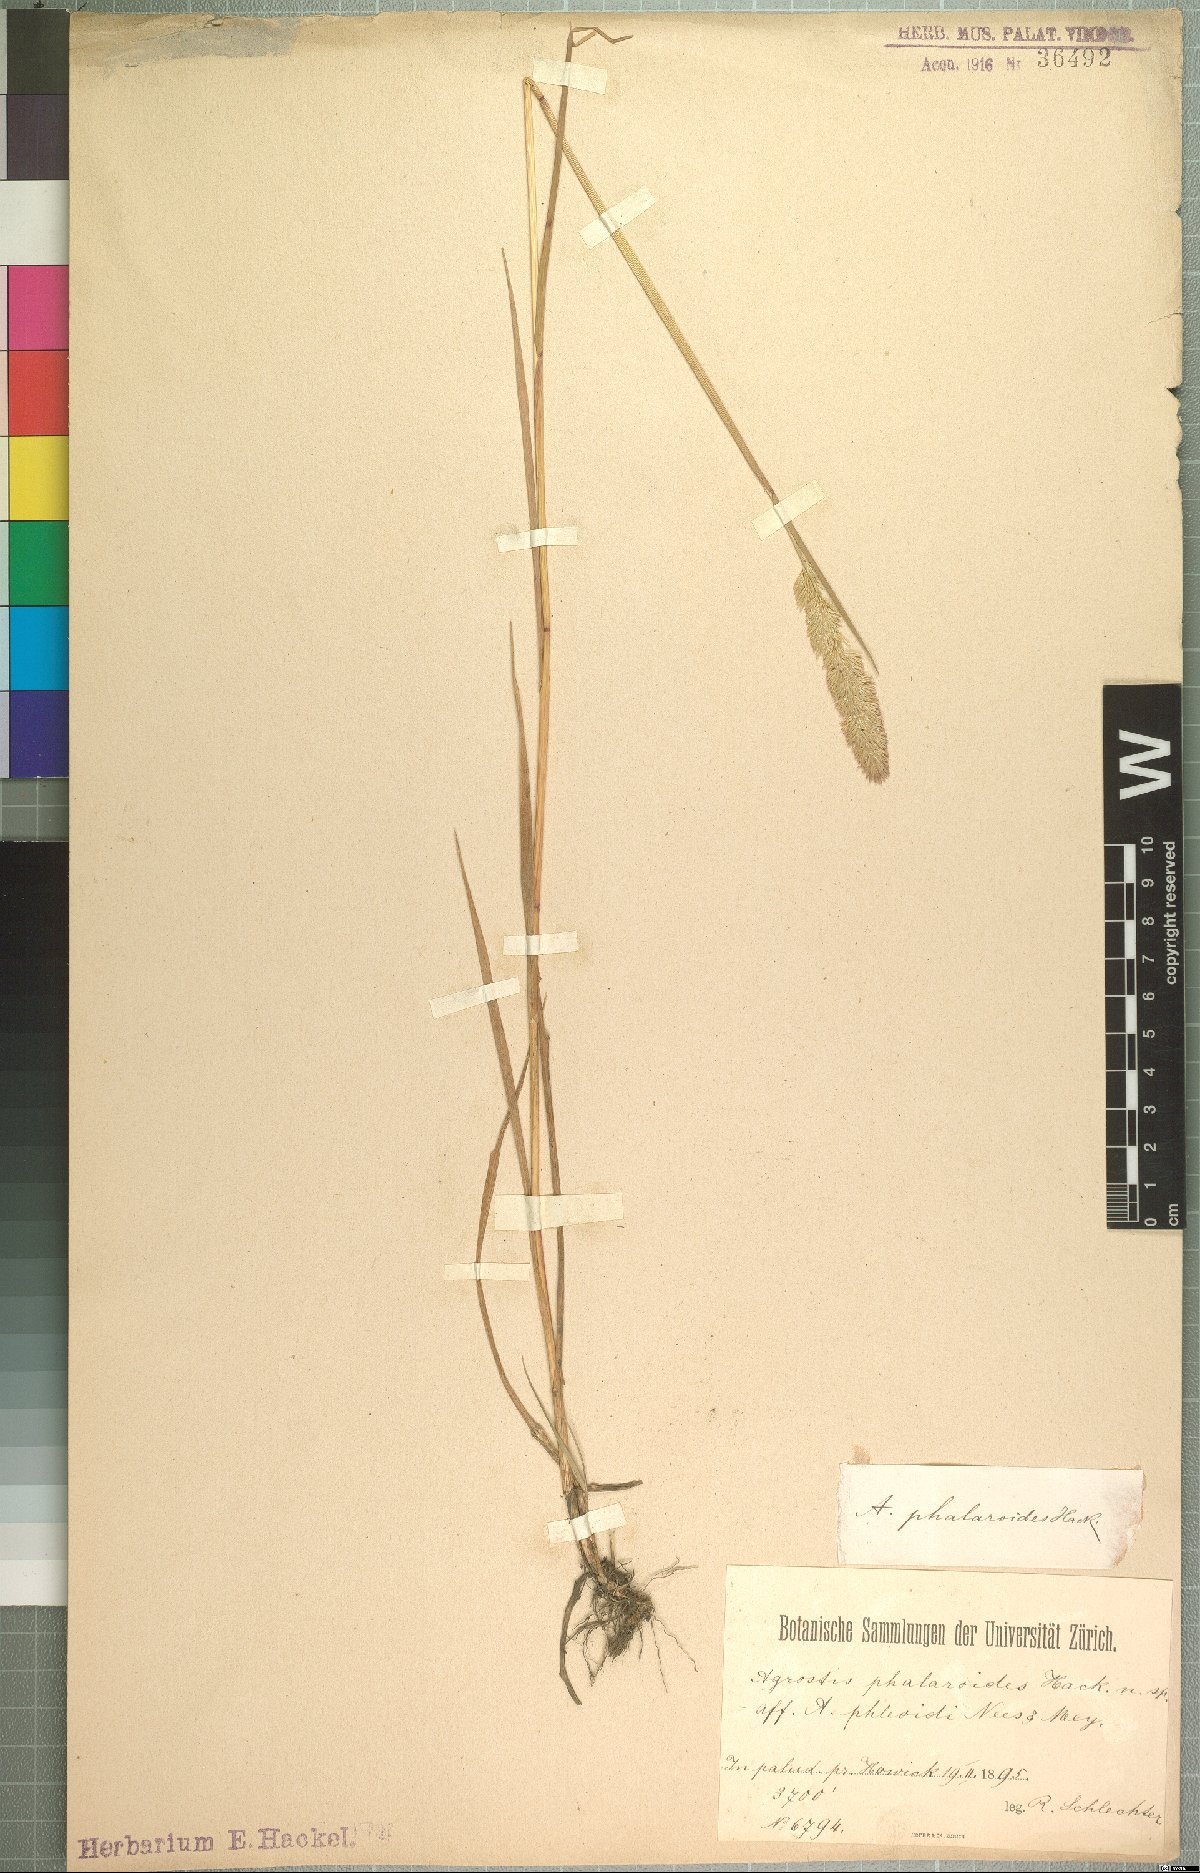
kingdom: Plantae
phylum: Tracheophyta
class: Liliopsida
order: Poales
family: Poaceae
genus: Agrostis
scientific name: Agrostis continuata
